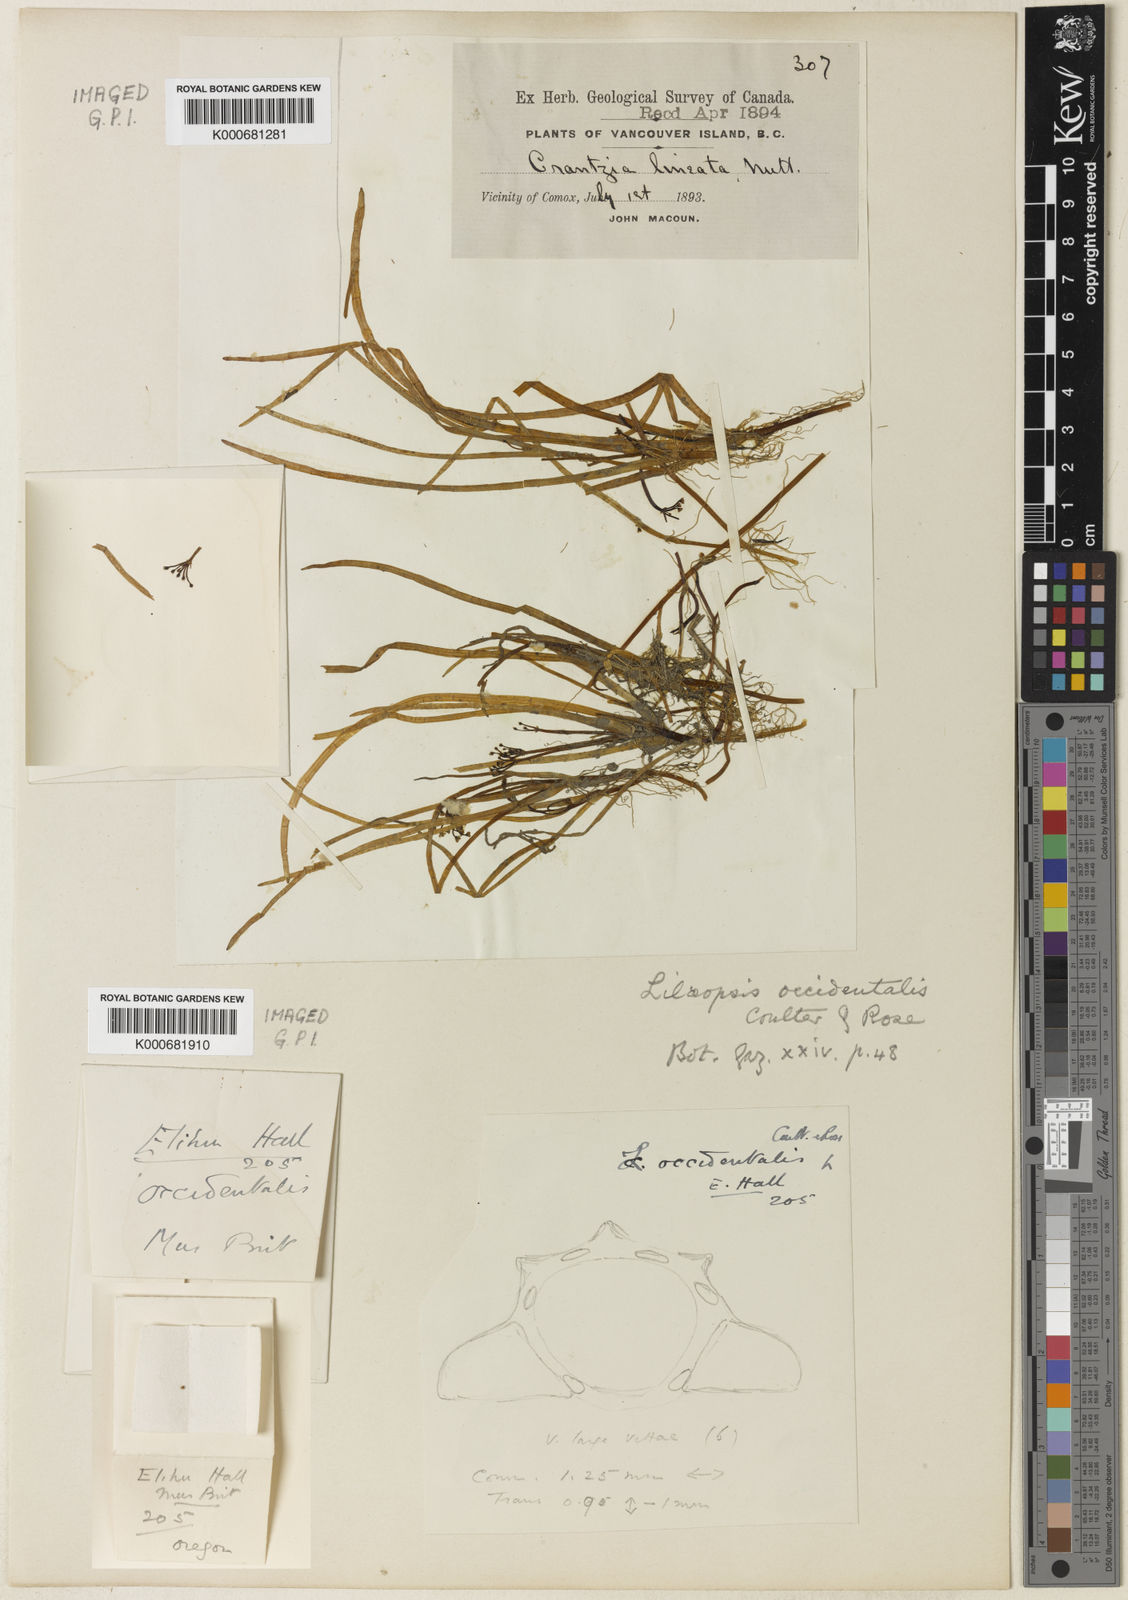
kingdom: Plantae
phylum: Tracheophyta
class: Magnoliopsida
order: Apiales
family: Apiaceae
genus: Lilaeopsis
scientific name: Lilaeopsis occidentalis
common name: Western grasswort
